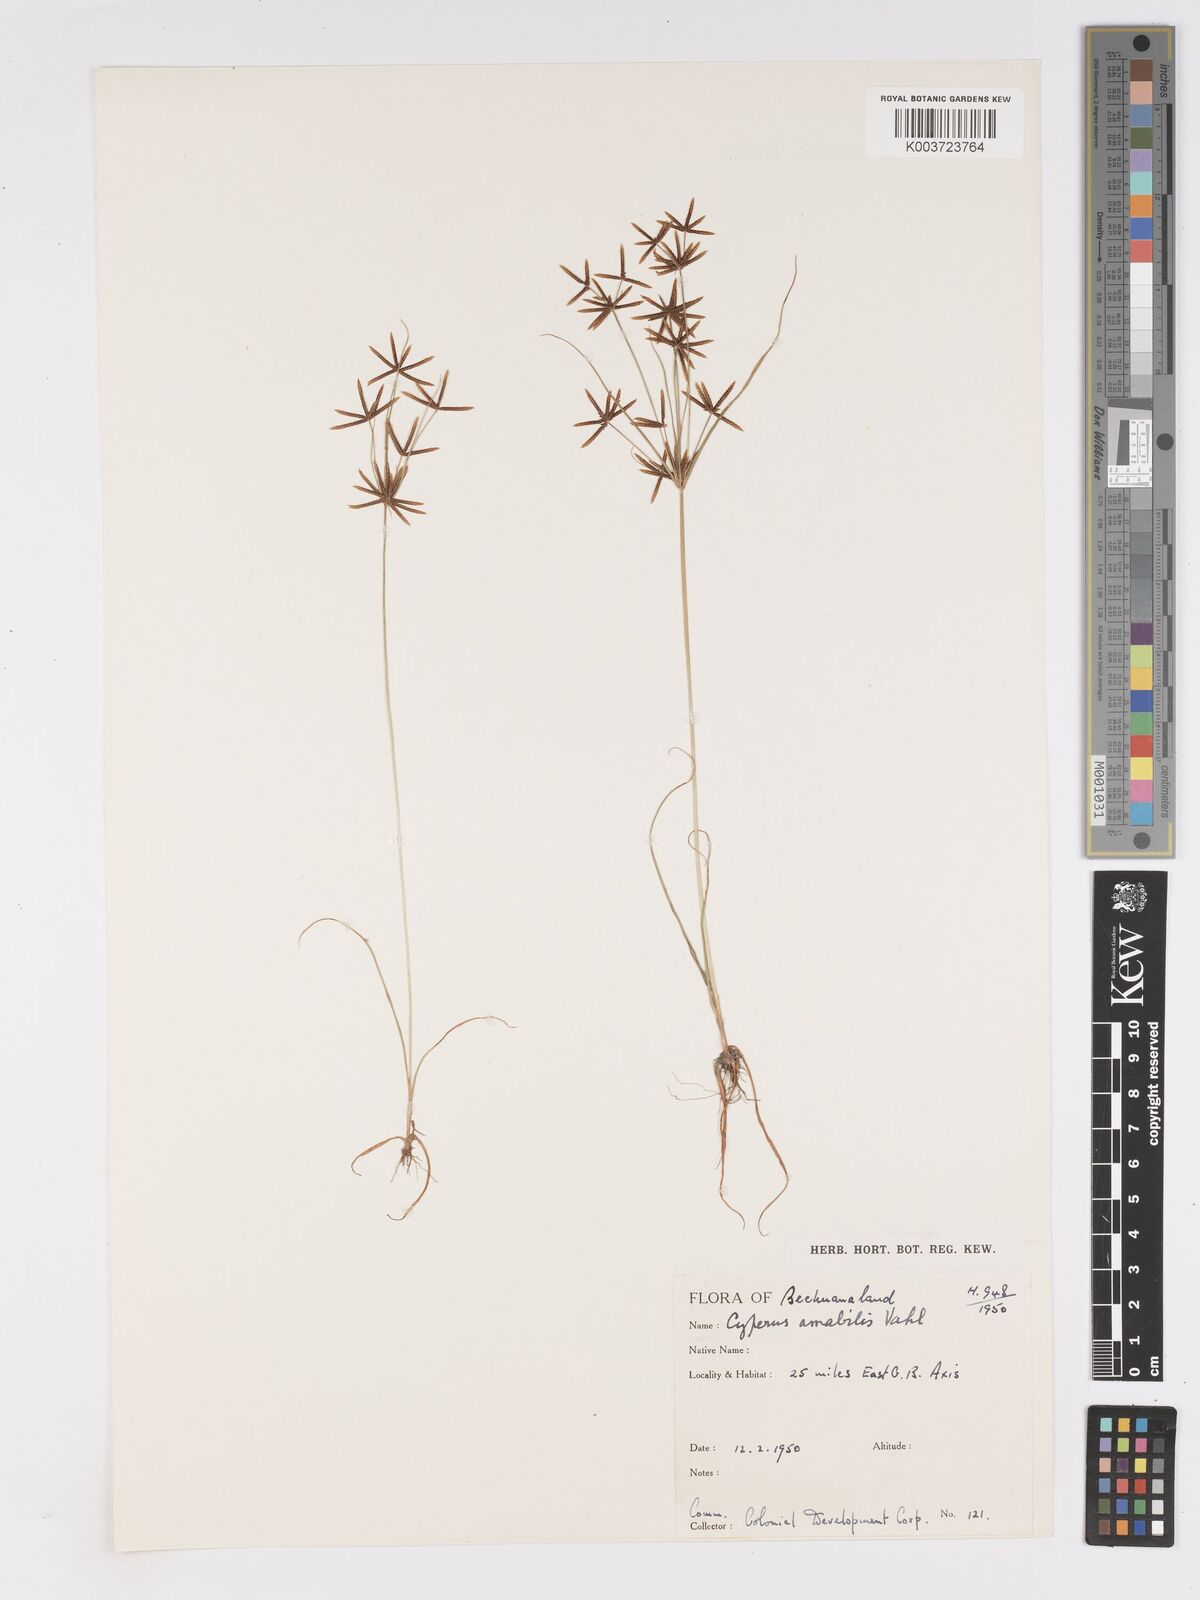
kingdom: Plantae
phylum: Tracheophyta
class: Liliopsida
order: Poales
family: Cyperaceae
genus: Cyperus
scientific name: Cyperus amabilis
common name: Foothill flat sedge
